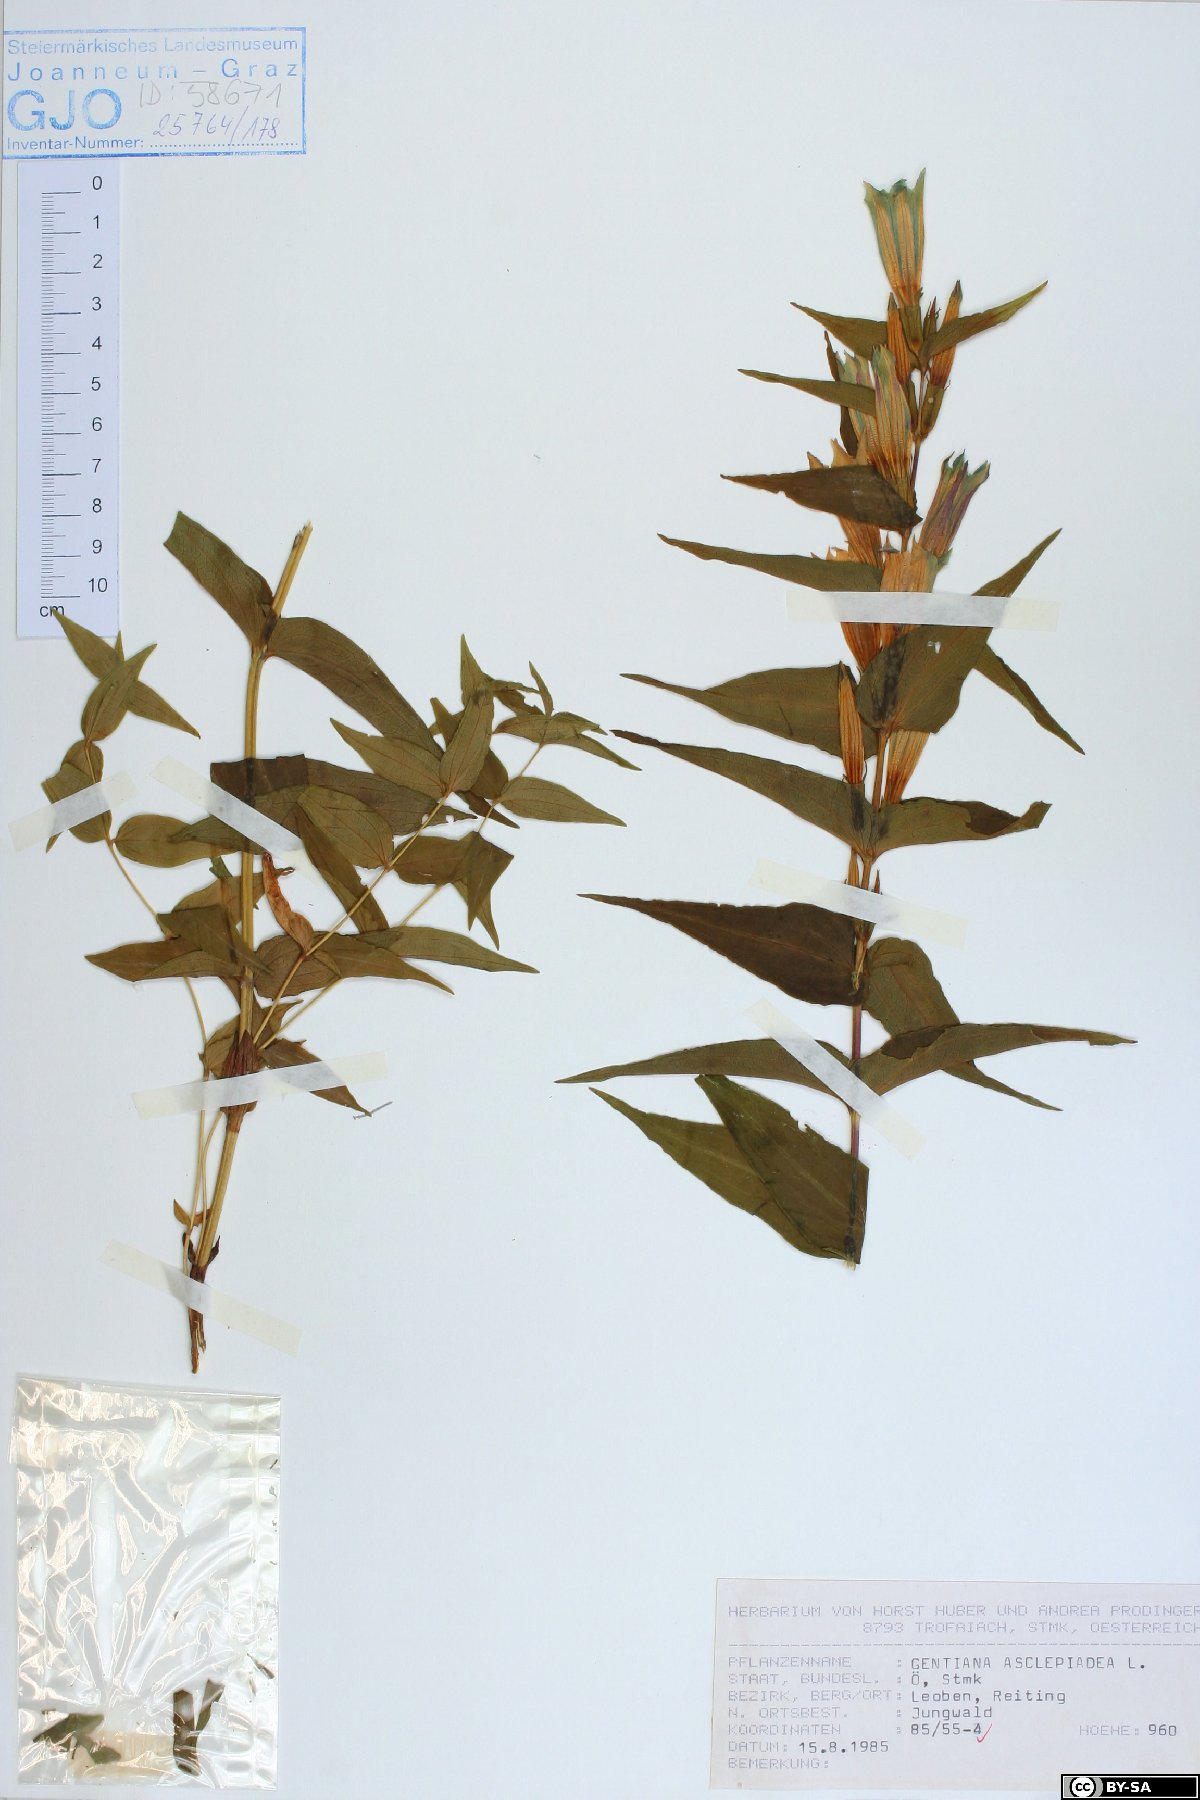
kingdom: Plantae
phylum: Tracheophyta
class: Magnoliopsida
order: Gentianales
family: Gentianaceae
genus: Gentiana
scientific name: Gentiana asclepiadea
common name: Willow gentian
